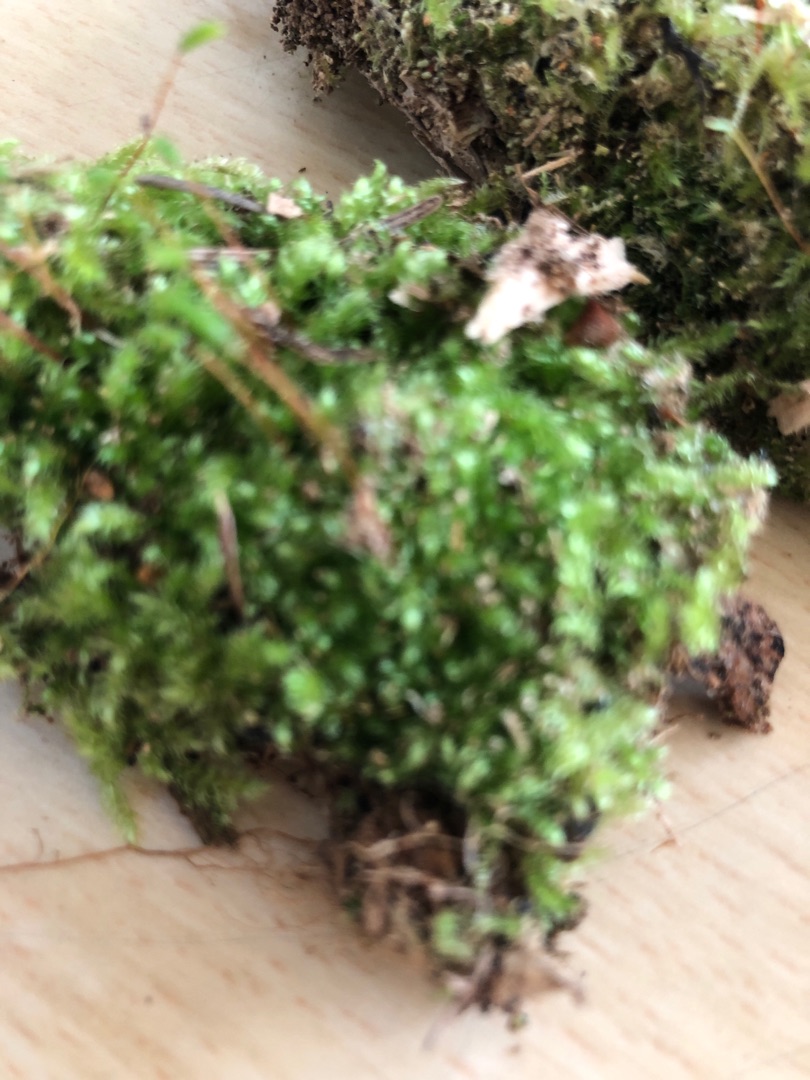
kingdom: Plantae
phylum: Bryophyta
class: Bryopsida
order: Hypnales
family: Plagiotheciaceae
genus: Herzogiella
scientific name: Herzogiella seligeri
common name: Stub-pølsekapsel
